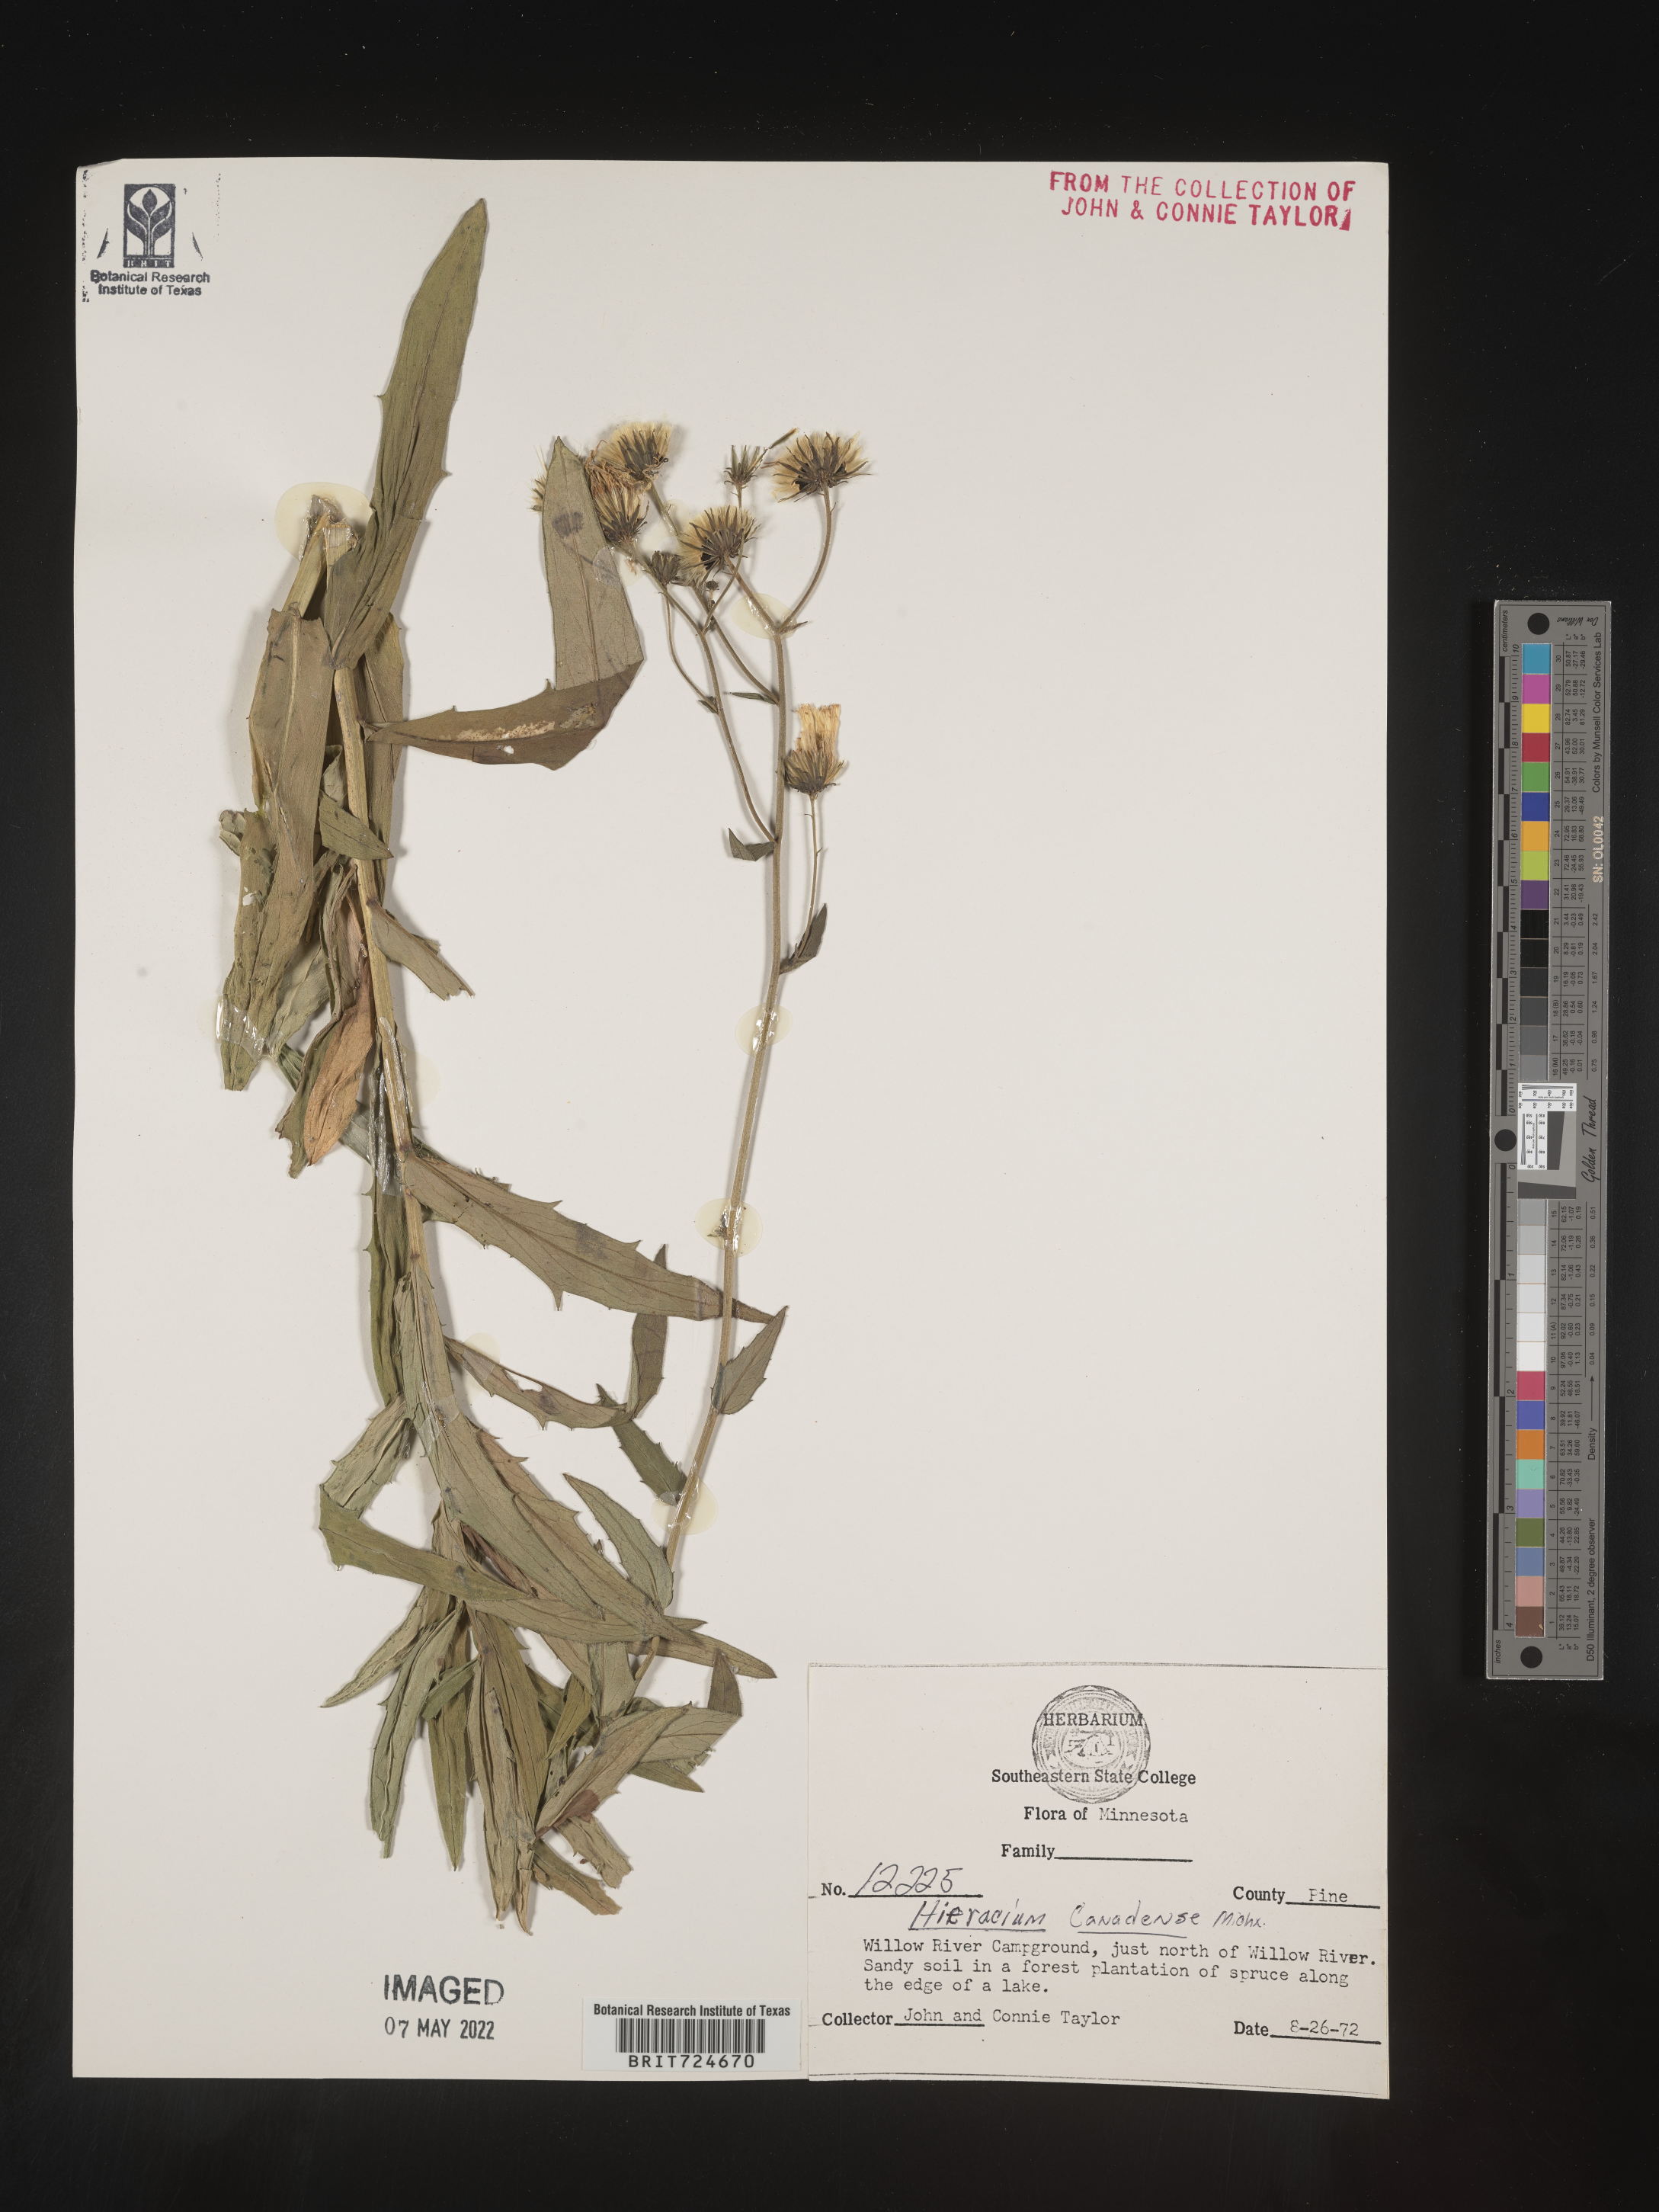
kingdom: Plantae
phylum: Tracheophyta
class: Magnoliopsida
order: Asterales
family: Asteraceae
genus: Hieracium
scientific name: Hieracium
